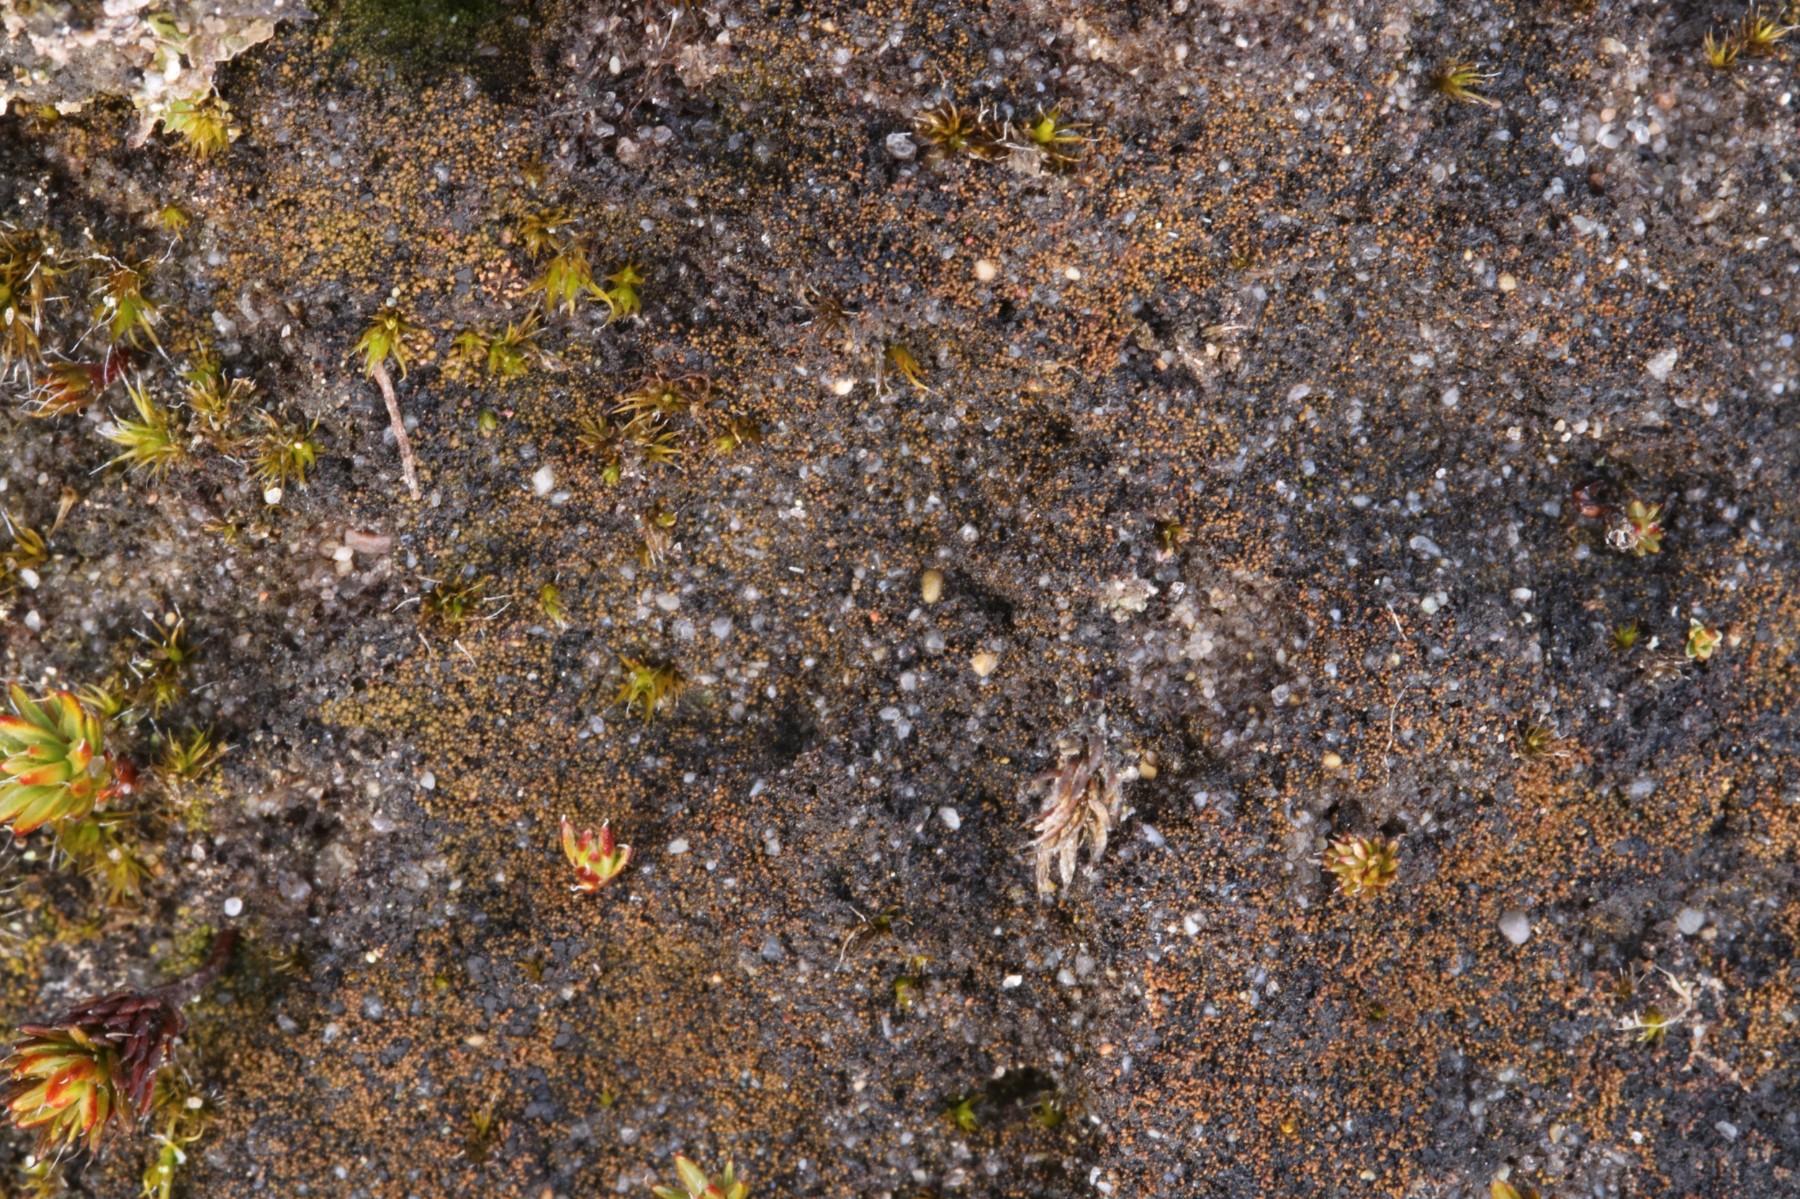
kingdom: Fungi
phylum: Ascomycota
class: Lecanoromycetes
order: Baeomycetales
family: Trapeliaceae
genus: Placynthiella
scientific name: Placynthiella icmalea
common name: stift-skivelav
